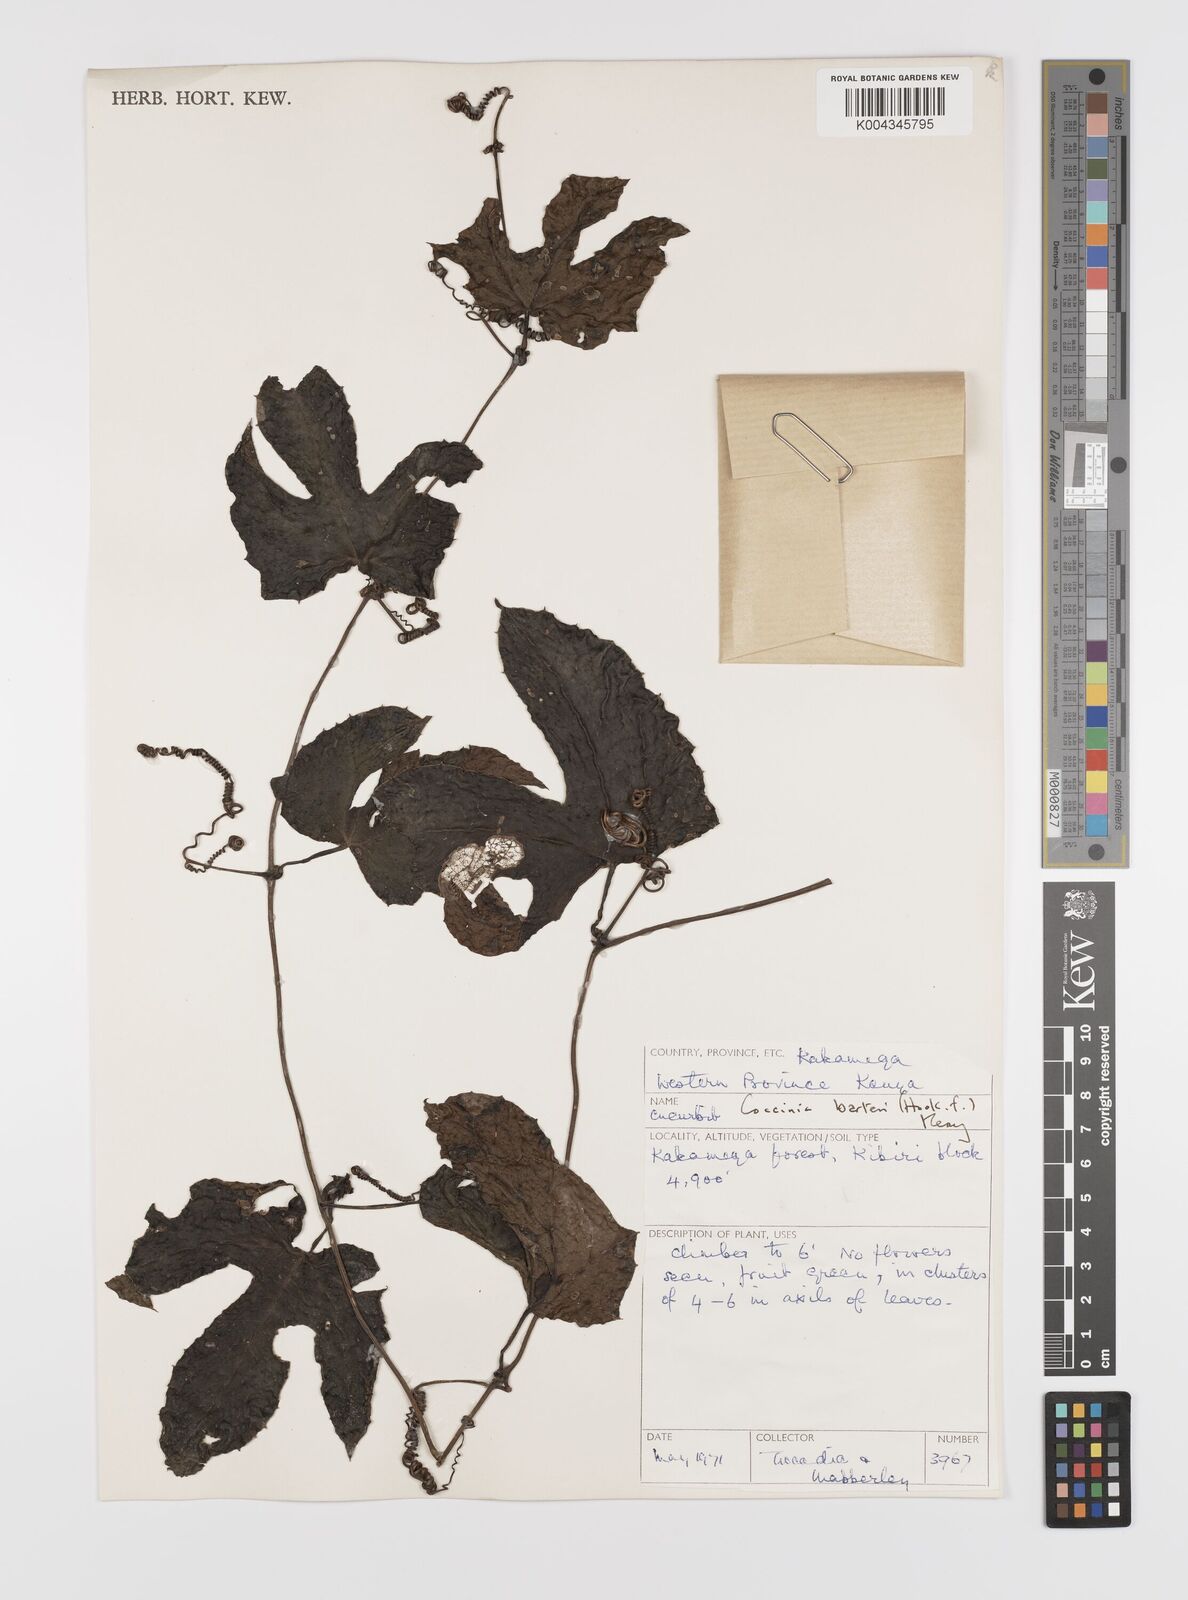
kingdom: Plantae
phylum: Tracheophyta
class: Magnoliopsida
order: Cucurbitales
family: Cucurbitaceae
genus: Coccinia
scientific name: Coccinia barteri
